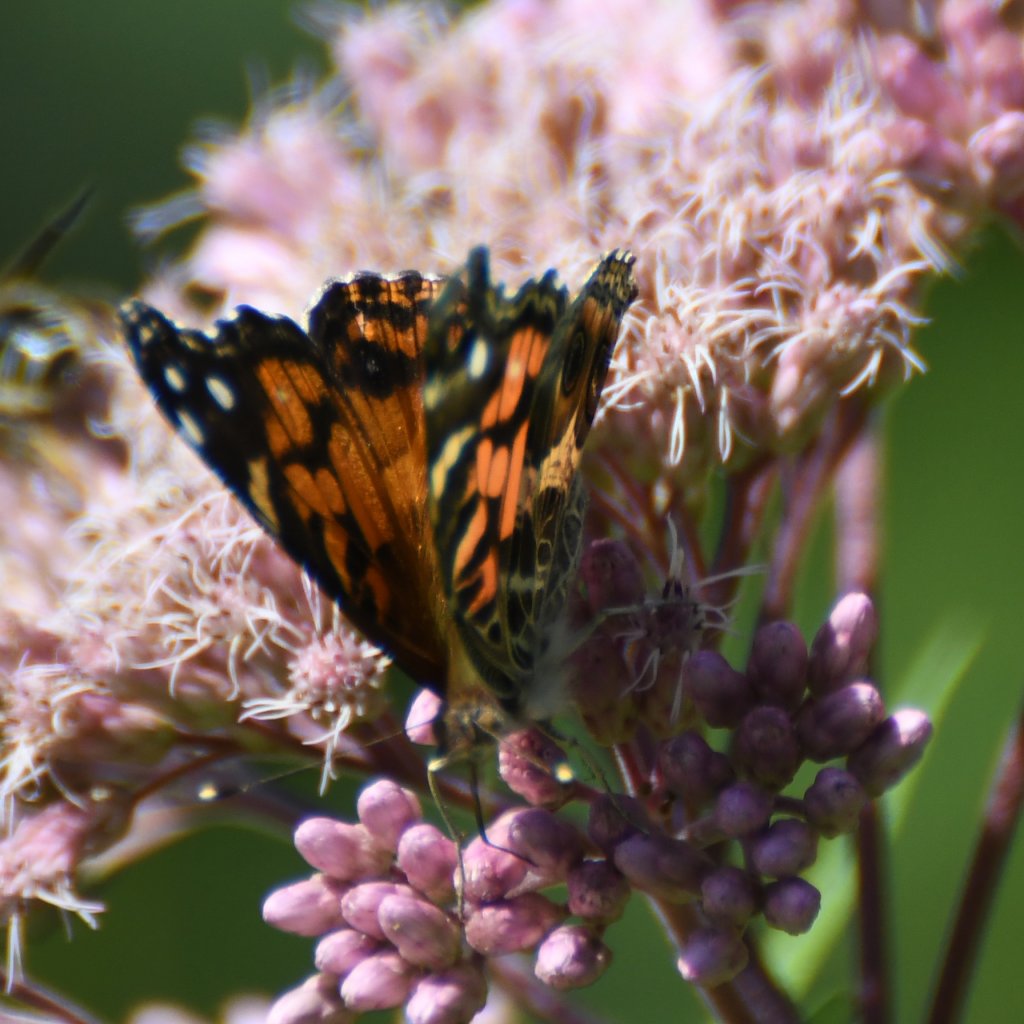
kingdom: Animalia
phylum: Arthropoda
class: Insecta
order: Lepidoptera
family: Nymphalidae
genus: Vanessa
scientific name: Vanessa virginiensis
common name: American Lady
